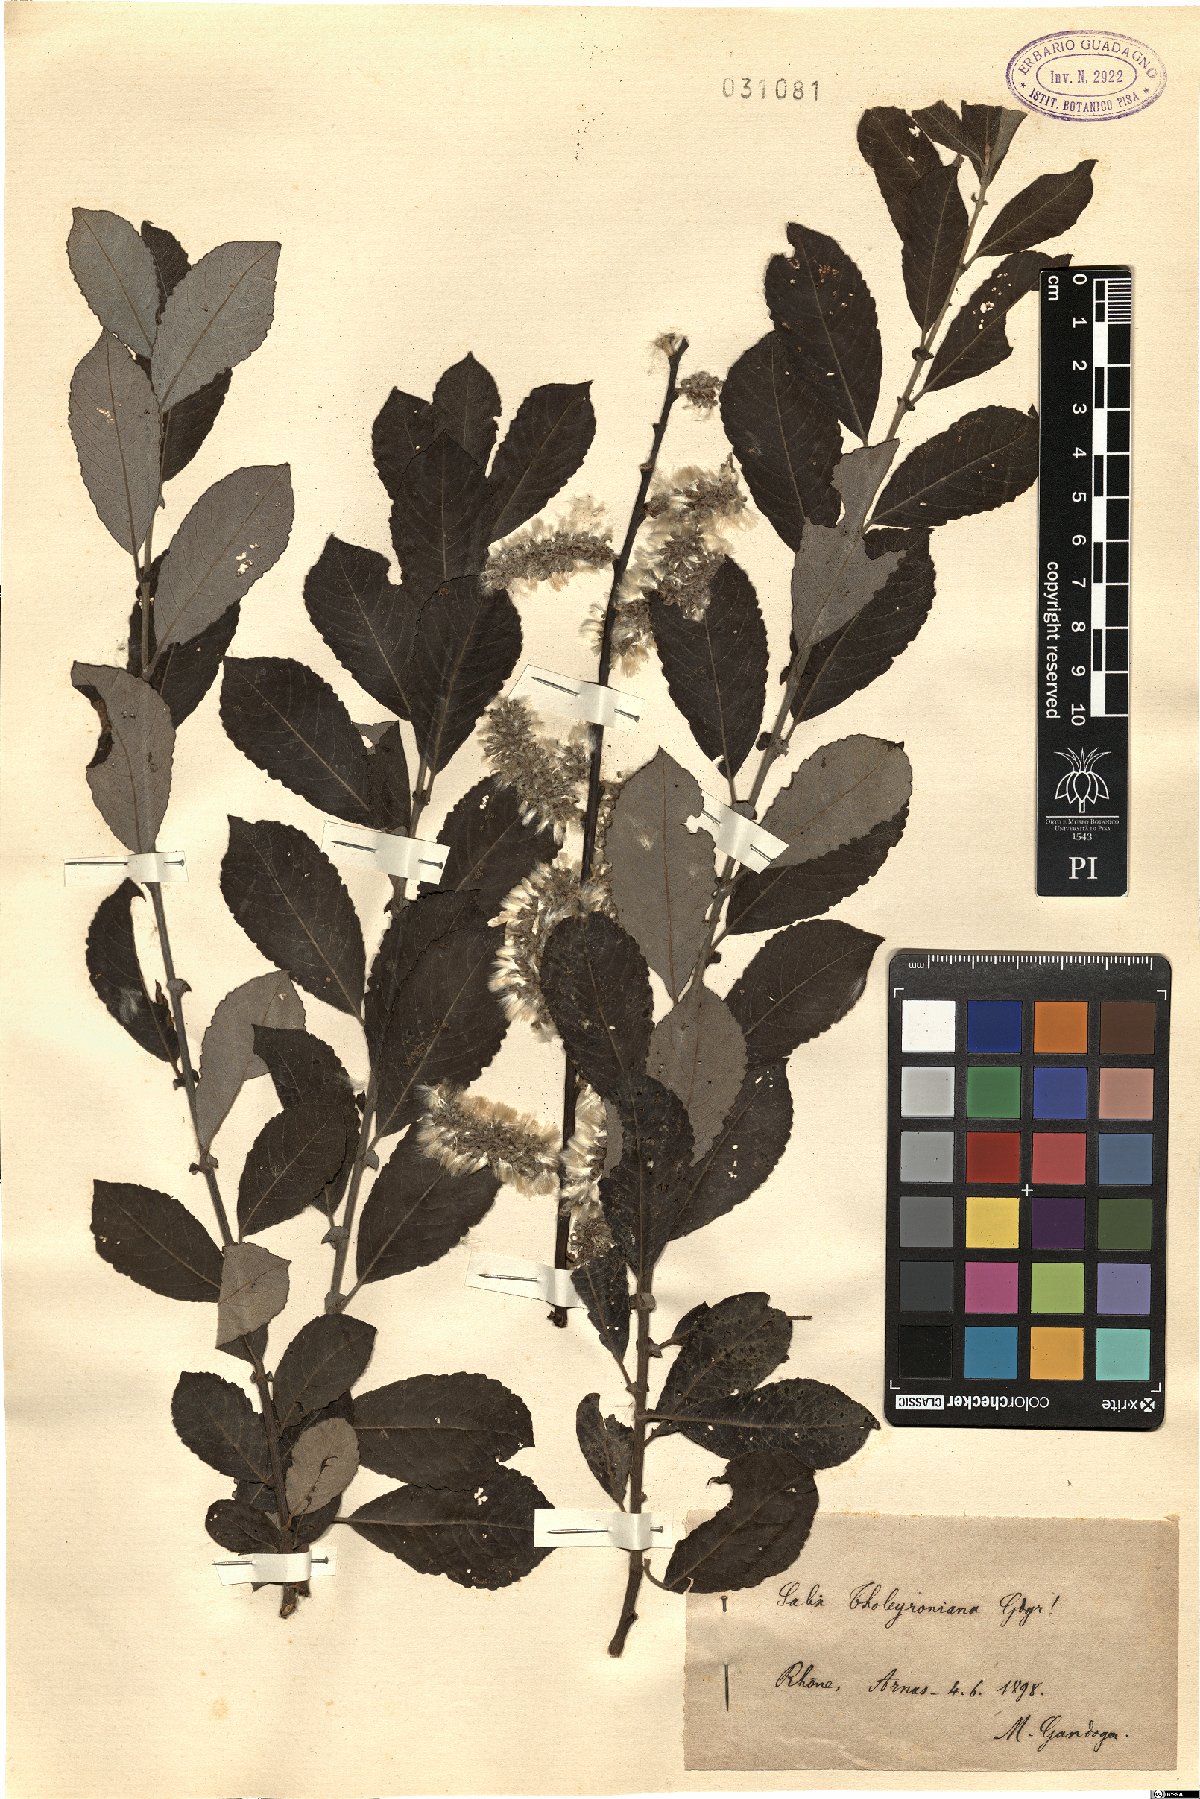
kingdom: Plantae
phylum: Tracheophyta
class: Magnoliopsida
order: Malpighiales
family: Salicaceae
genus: Salix
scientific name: Salix tholeyroniana
